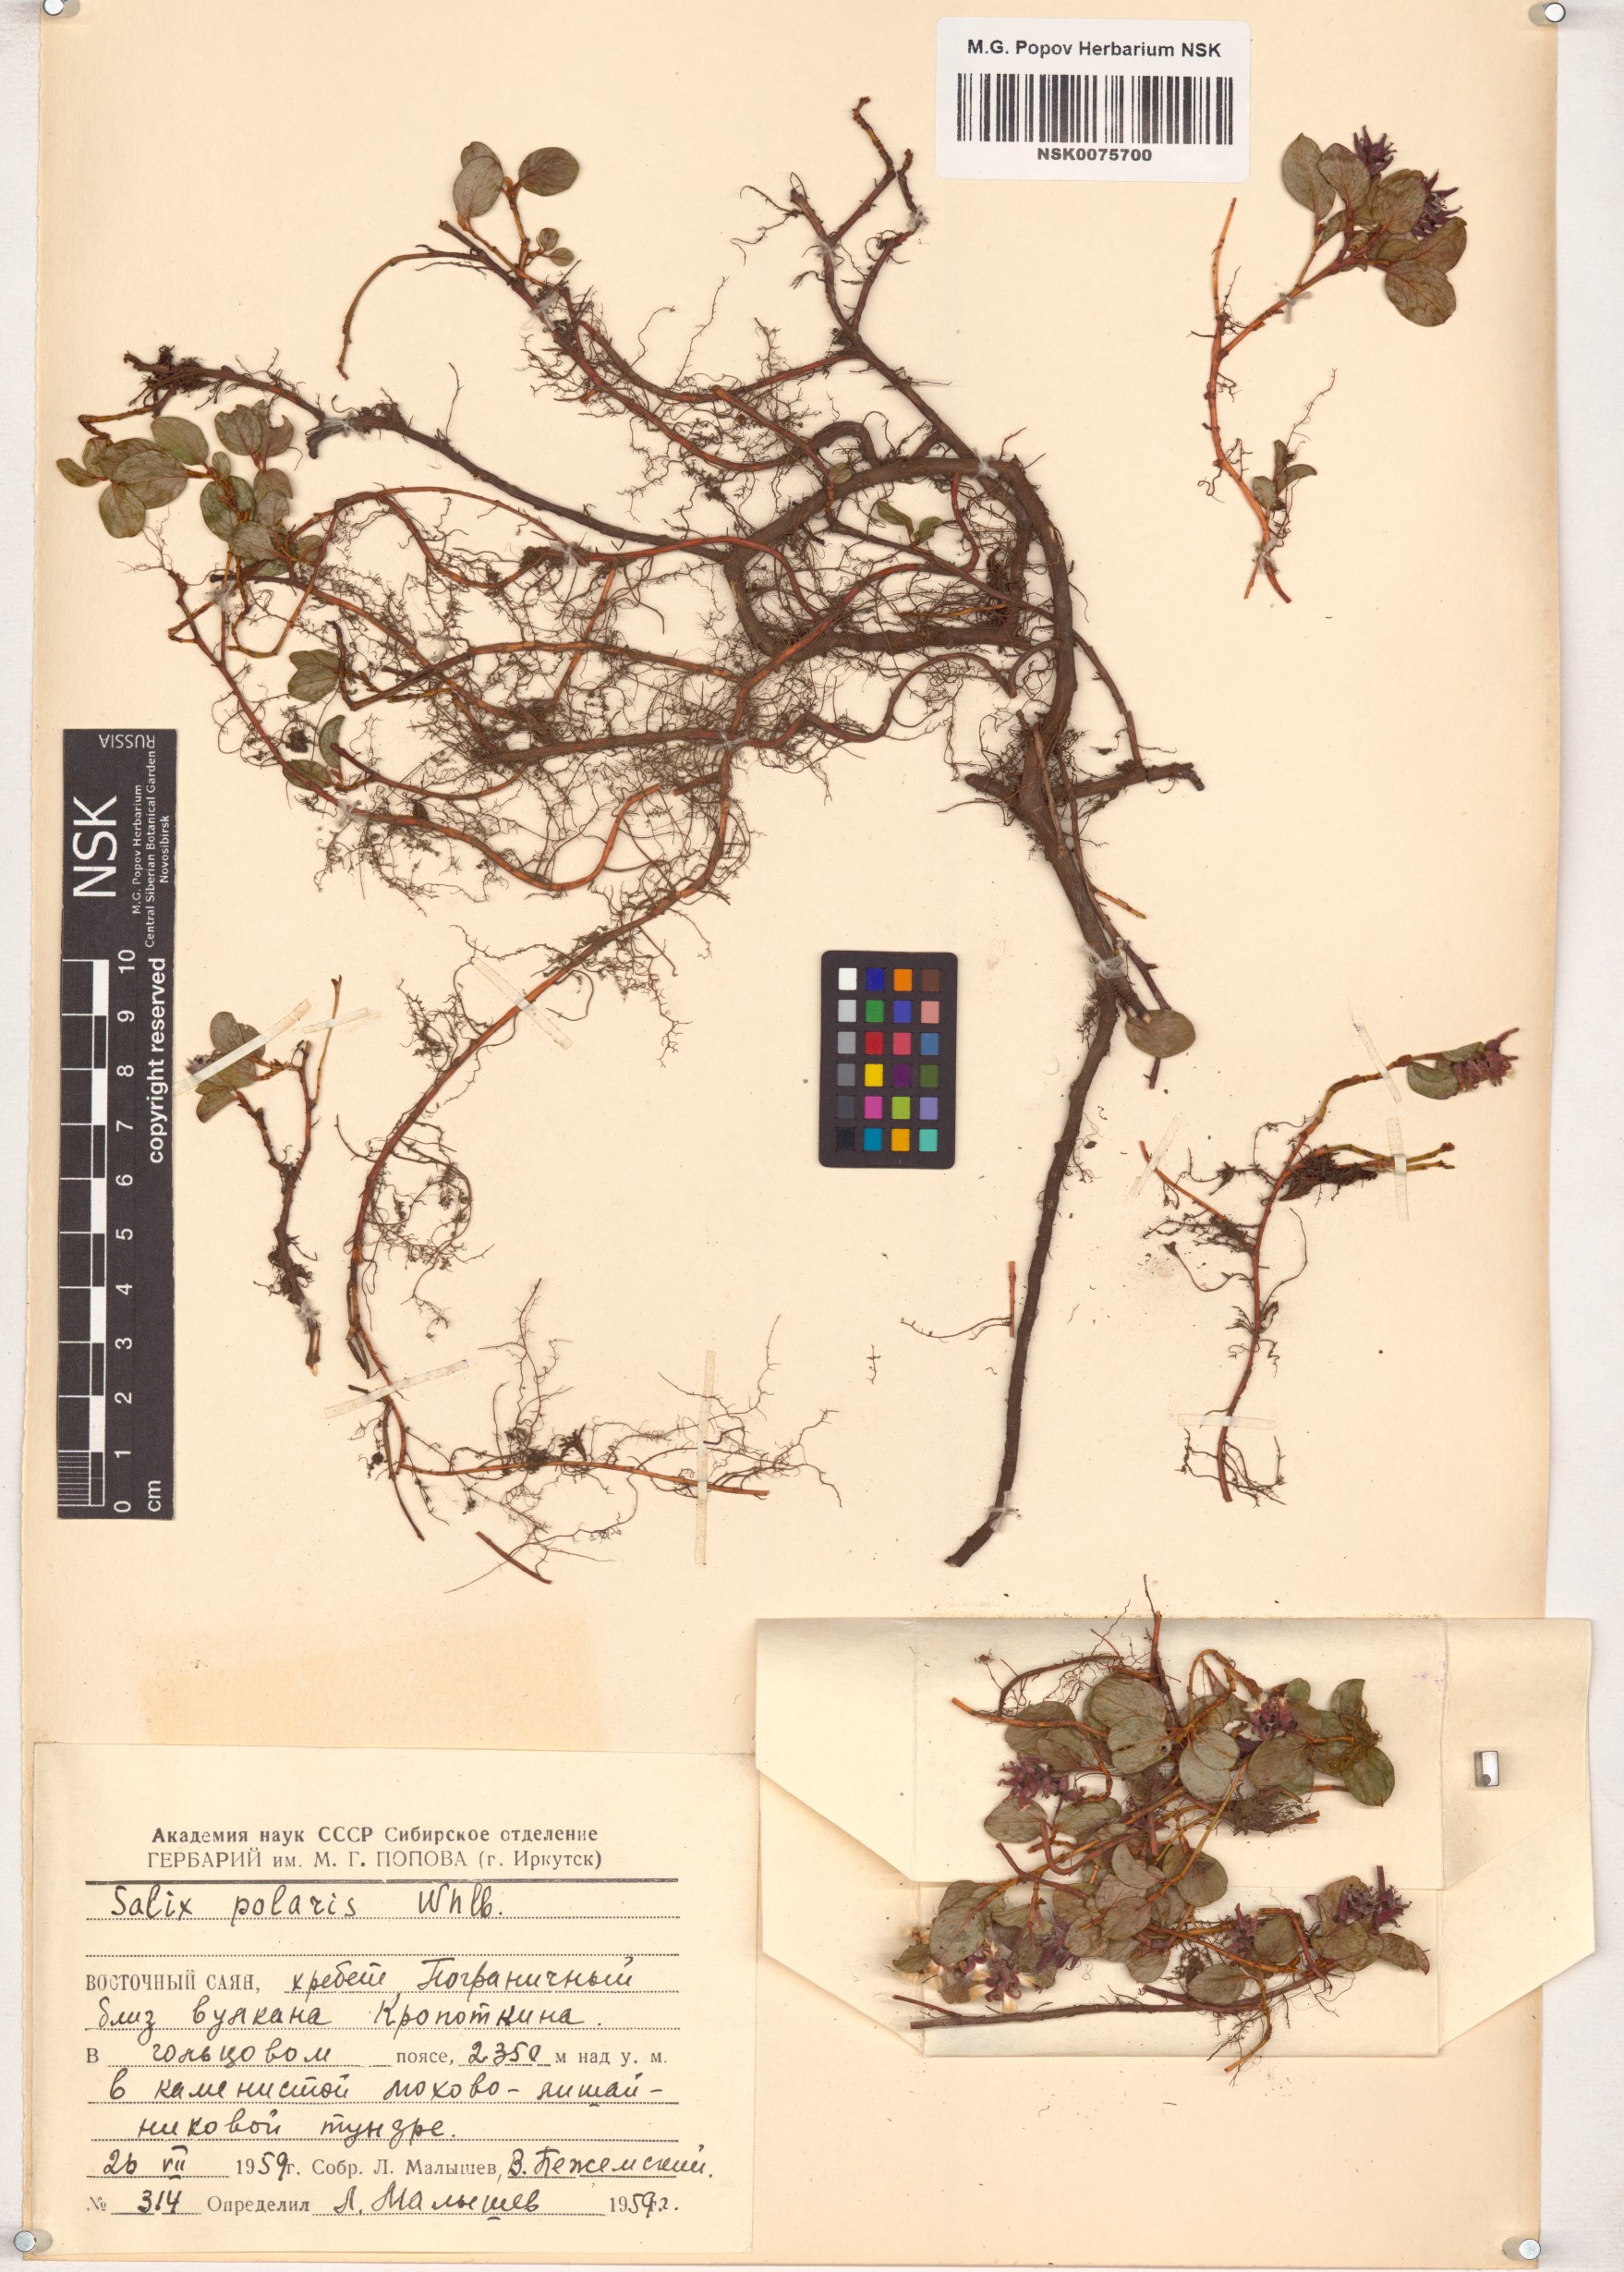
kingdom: Plantae
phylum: Tracheophyta
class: Magnoliopsida
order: Malpighiales
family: Salicaceae
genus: Salix
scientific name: Salix polaris
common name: Polar willow
